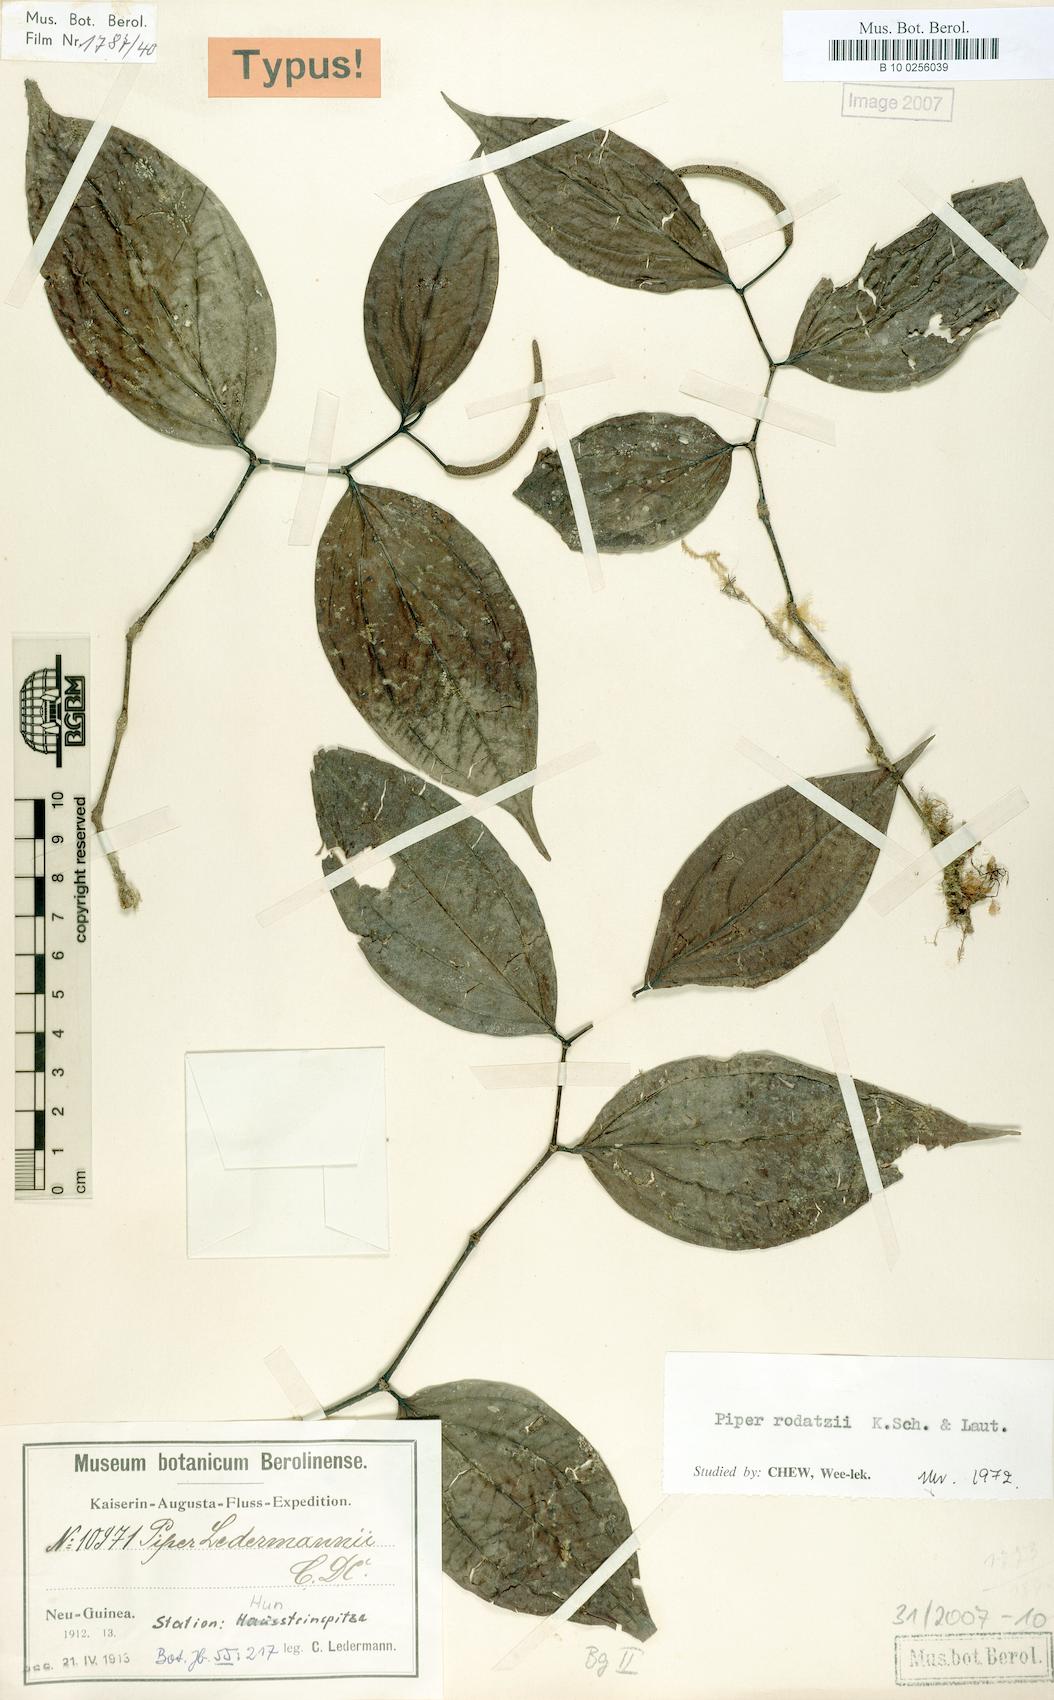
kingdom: Plantae
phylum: Tracheophyta
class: Magnoliopsida
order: Piperales
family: Piperaceae
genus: Piper
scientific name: Piper macropiper
